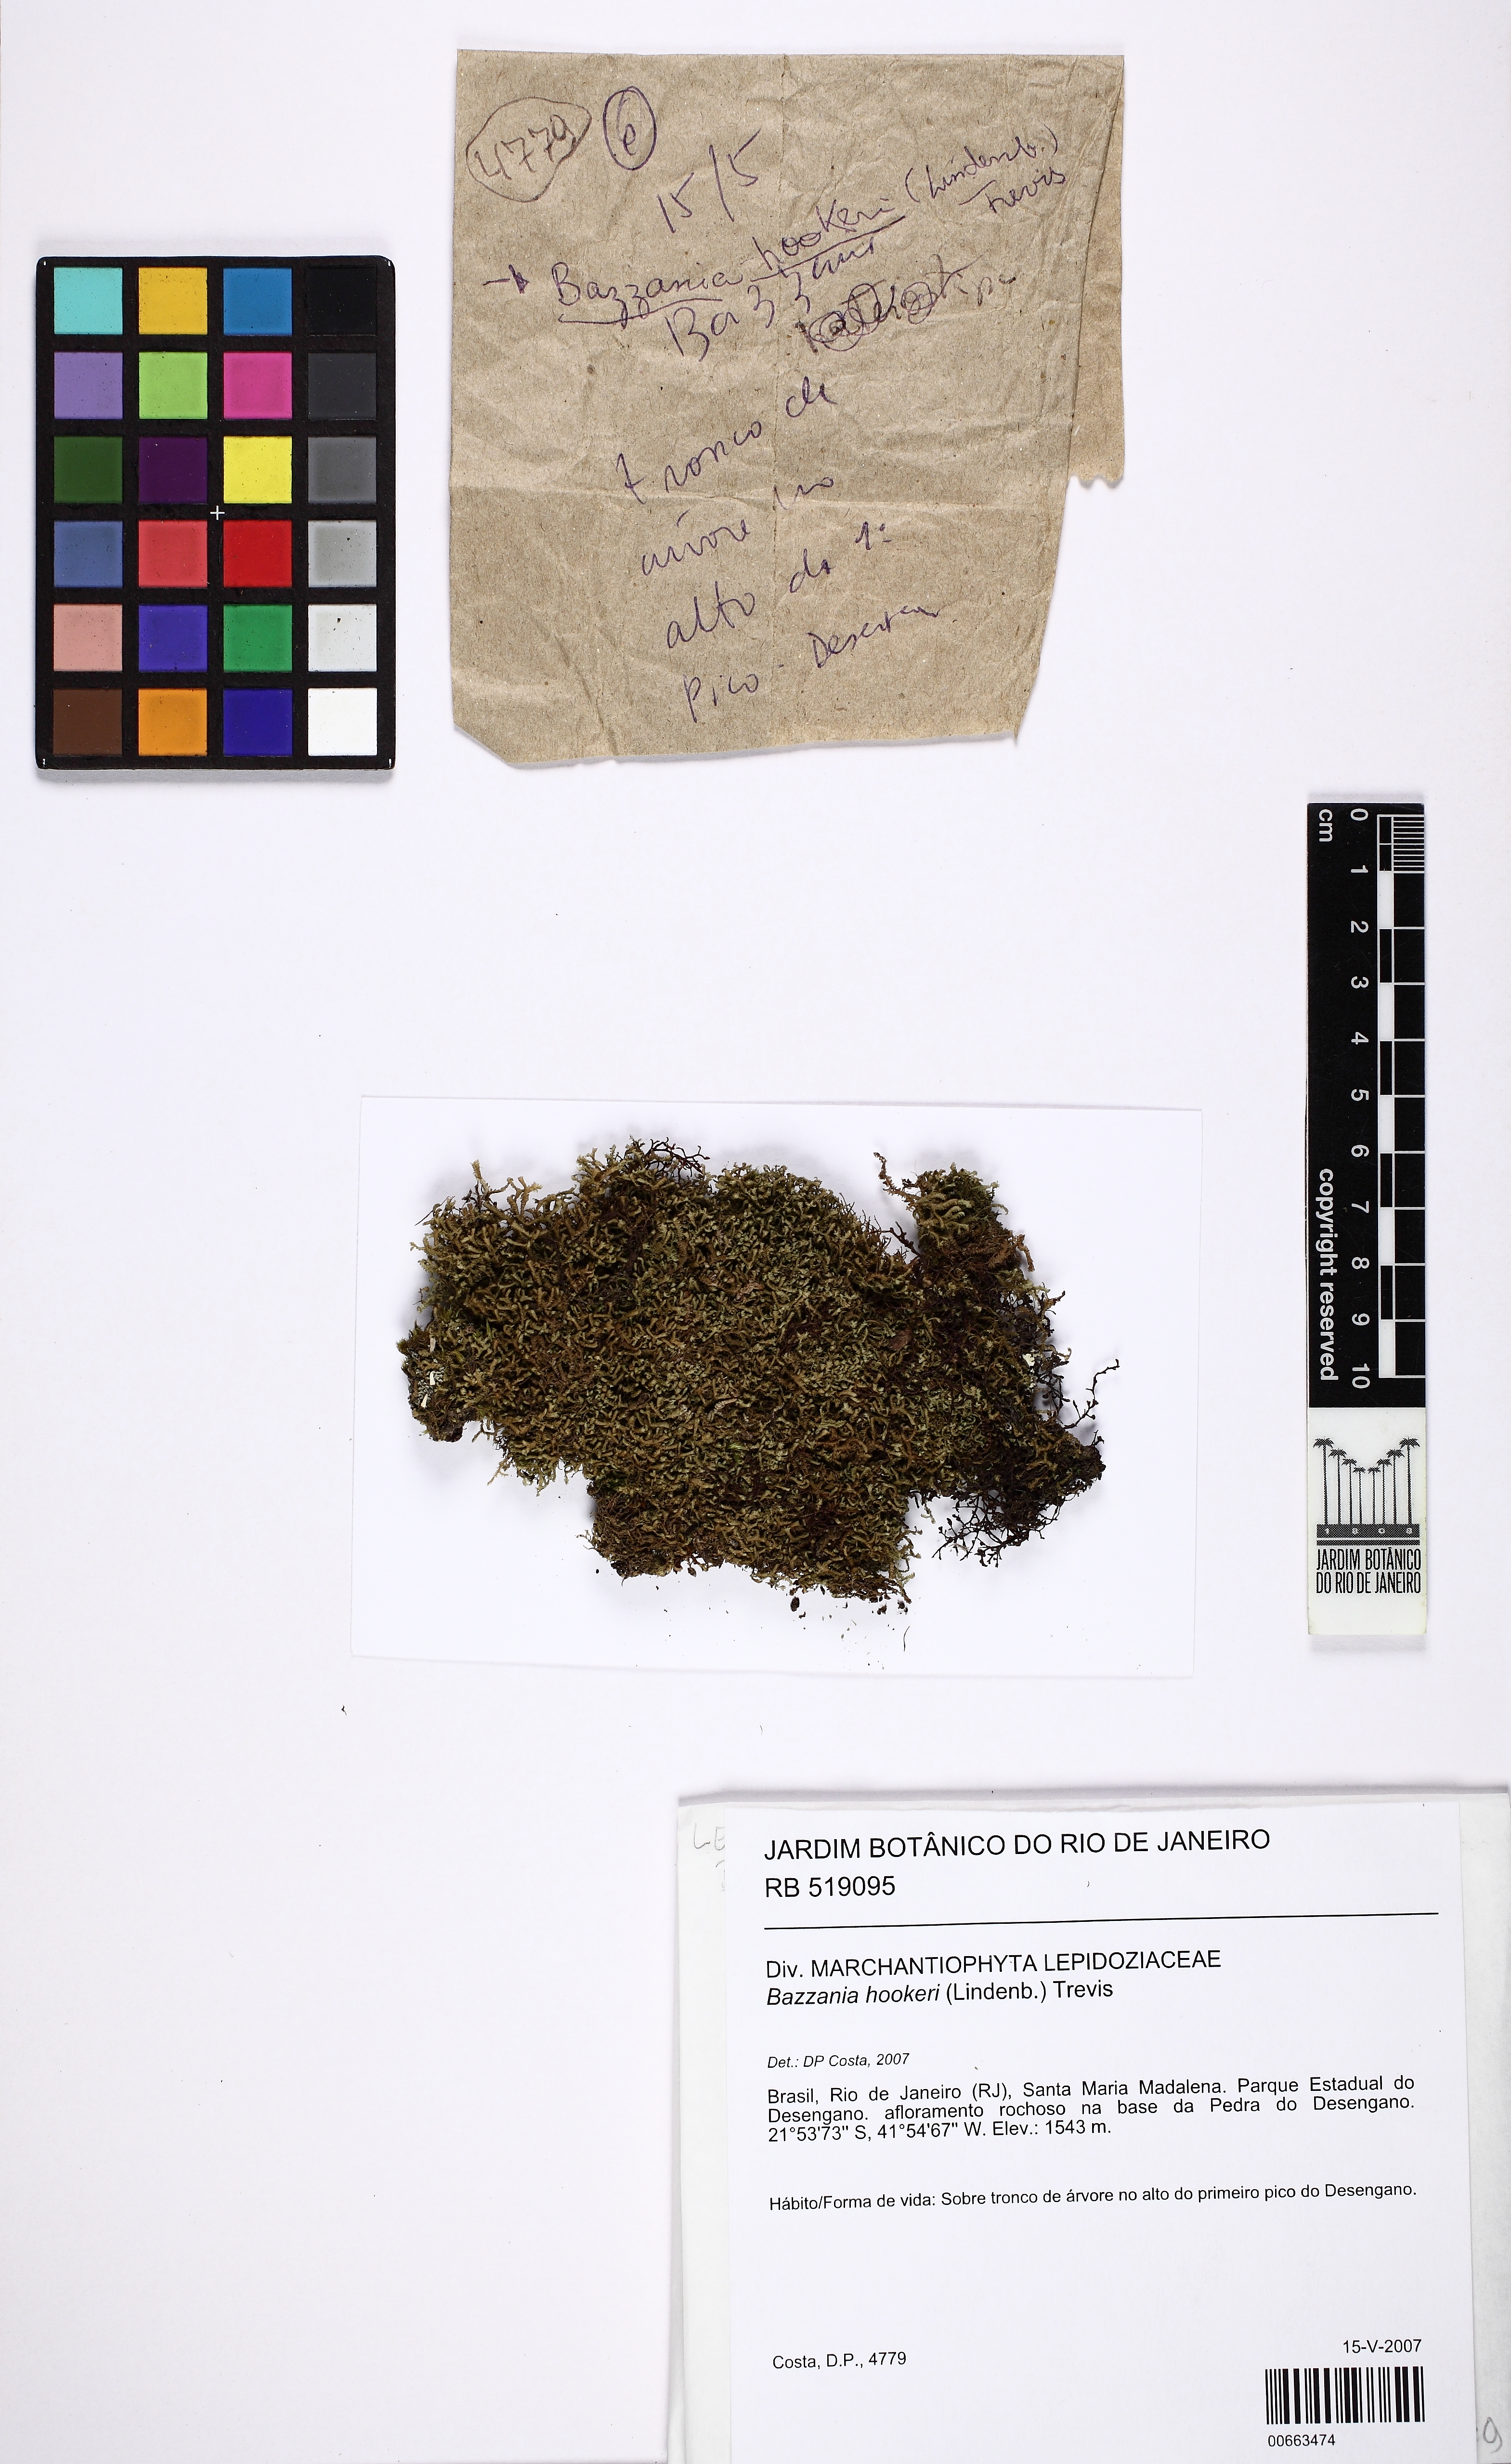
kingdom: Plantae
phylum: Marchantiophyta
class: Jungermanniopsida
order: Jungermanniales
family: Lepidoziaceae
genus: Bazzania
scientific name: Bazzania hookeri
